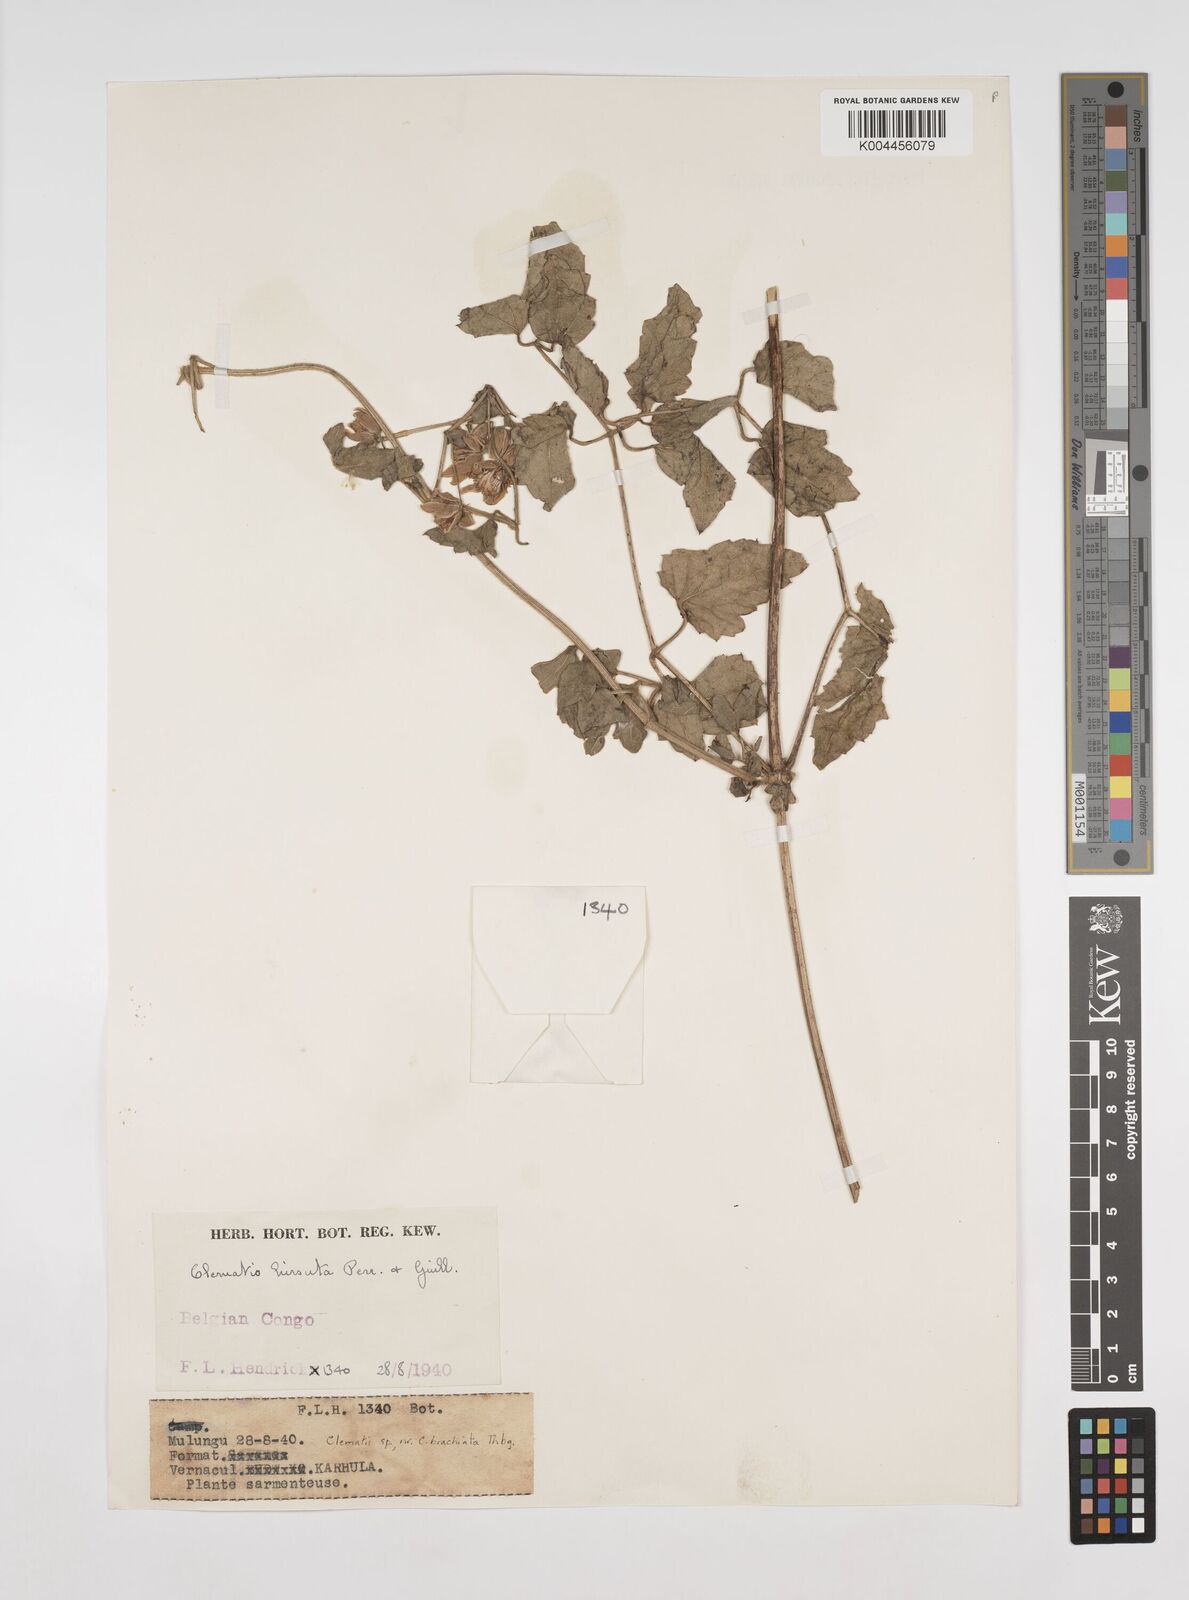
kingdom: Plantae
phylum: Tracheophyta
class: Magnoliopsida
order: Ranunculales
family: Ranunculaceae
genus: Clematis
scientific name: Clematis
